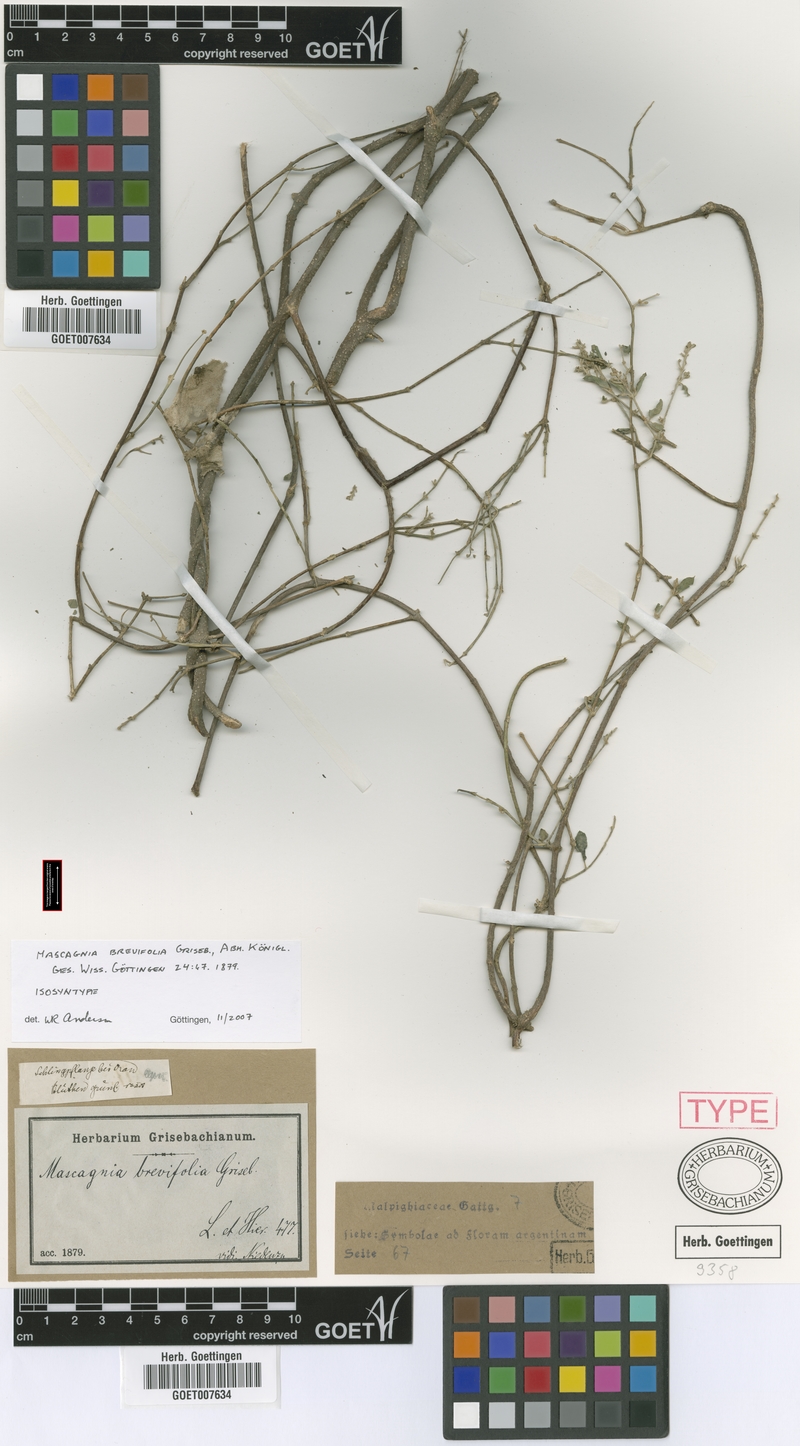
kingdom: Plantae
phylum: Tracheophyta
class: Magnoliopsida
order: Malpighiales
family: Malpighiaceae
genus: Mascagnia
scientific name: Mascagnia brevifolia
